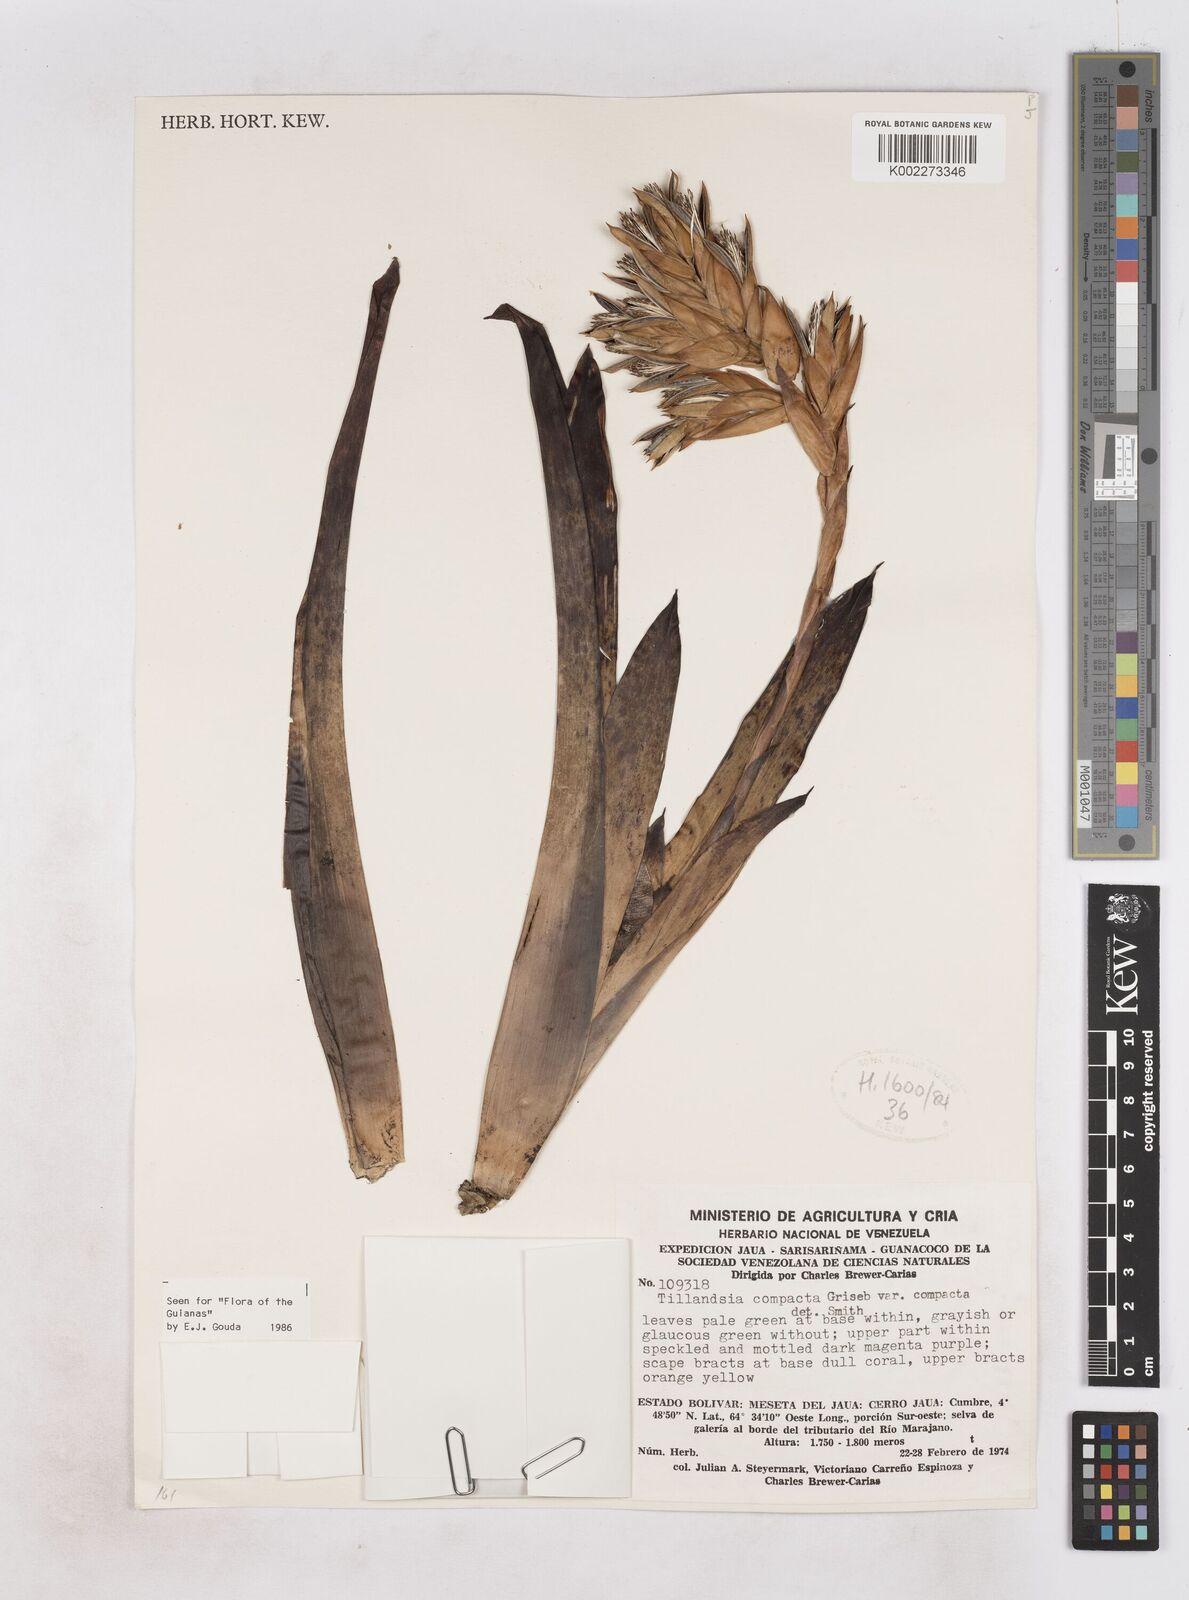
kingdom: Plantae
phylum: Tracheophyta
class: Liliopsida
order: Poales
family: Bromeliaceae
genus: Tillandsia
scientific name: Tillandsia compacta
